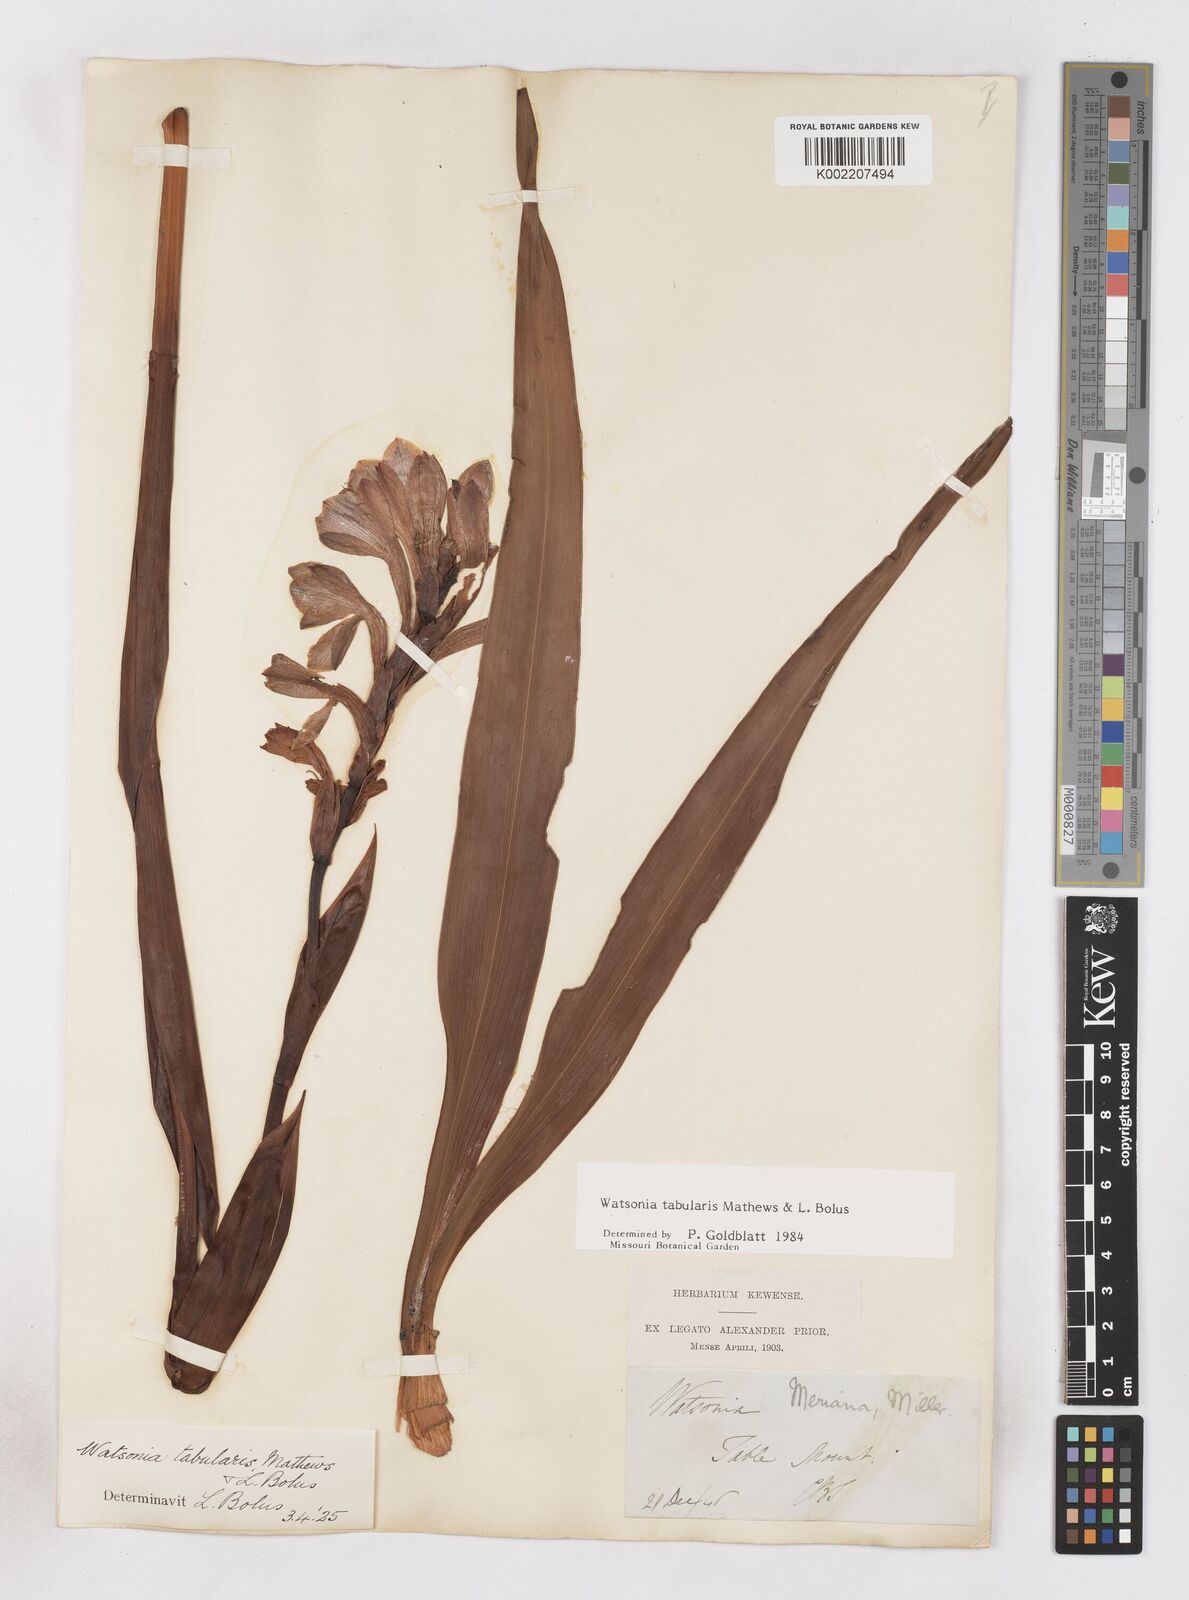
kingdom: Plantae
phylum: Tracheophyta
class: Liliopsida
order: Asparagales
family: Iridaceae
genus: Watsonia
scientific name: Watsonia tabularis
